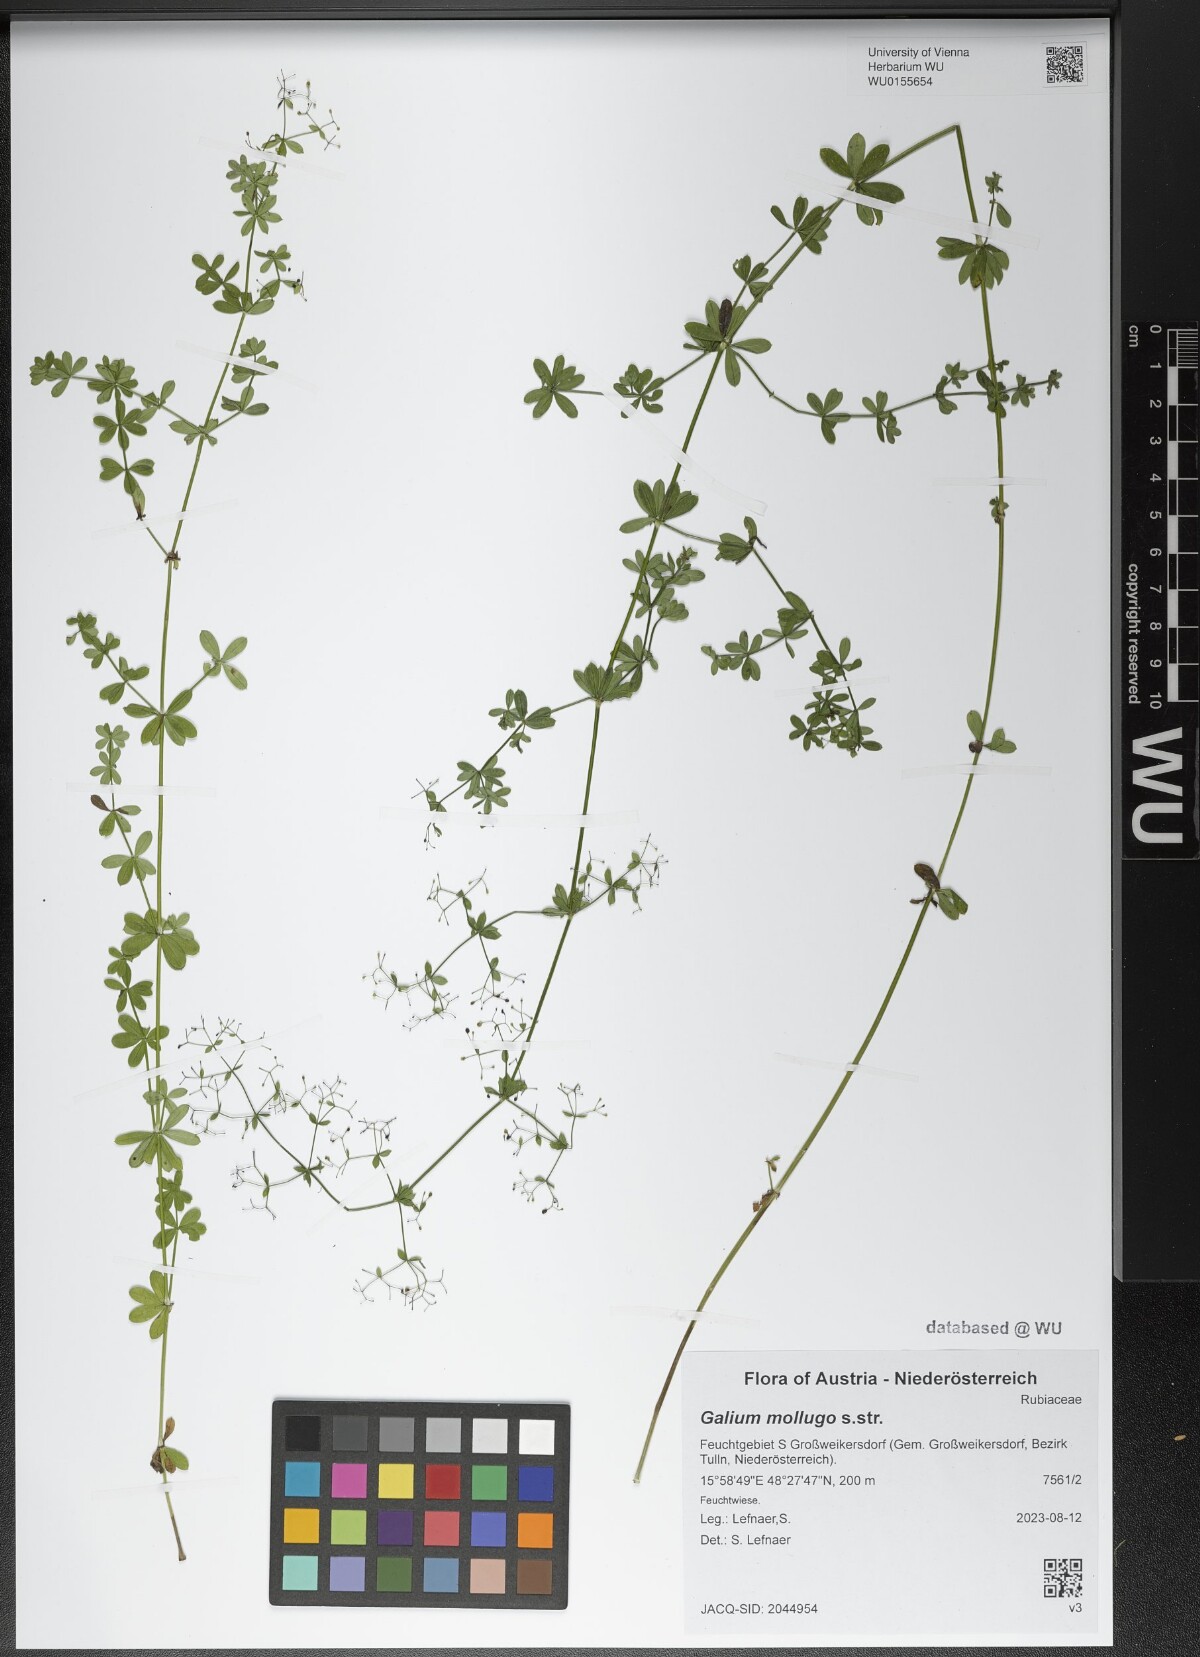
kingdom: Plantae
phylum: Tracheophyta
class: Magnoliopsida
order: Gentianales
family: Rubiaceae
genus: Galium
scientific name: Galium mollugo
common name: Hedge bedstraw
